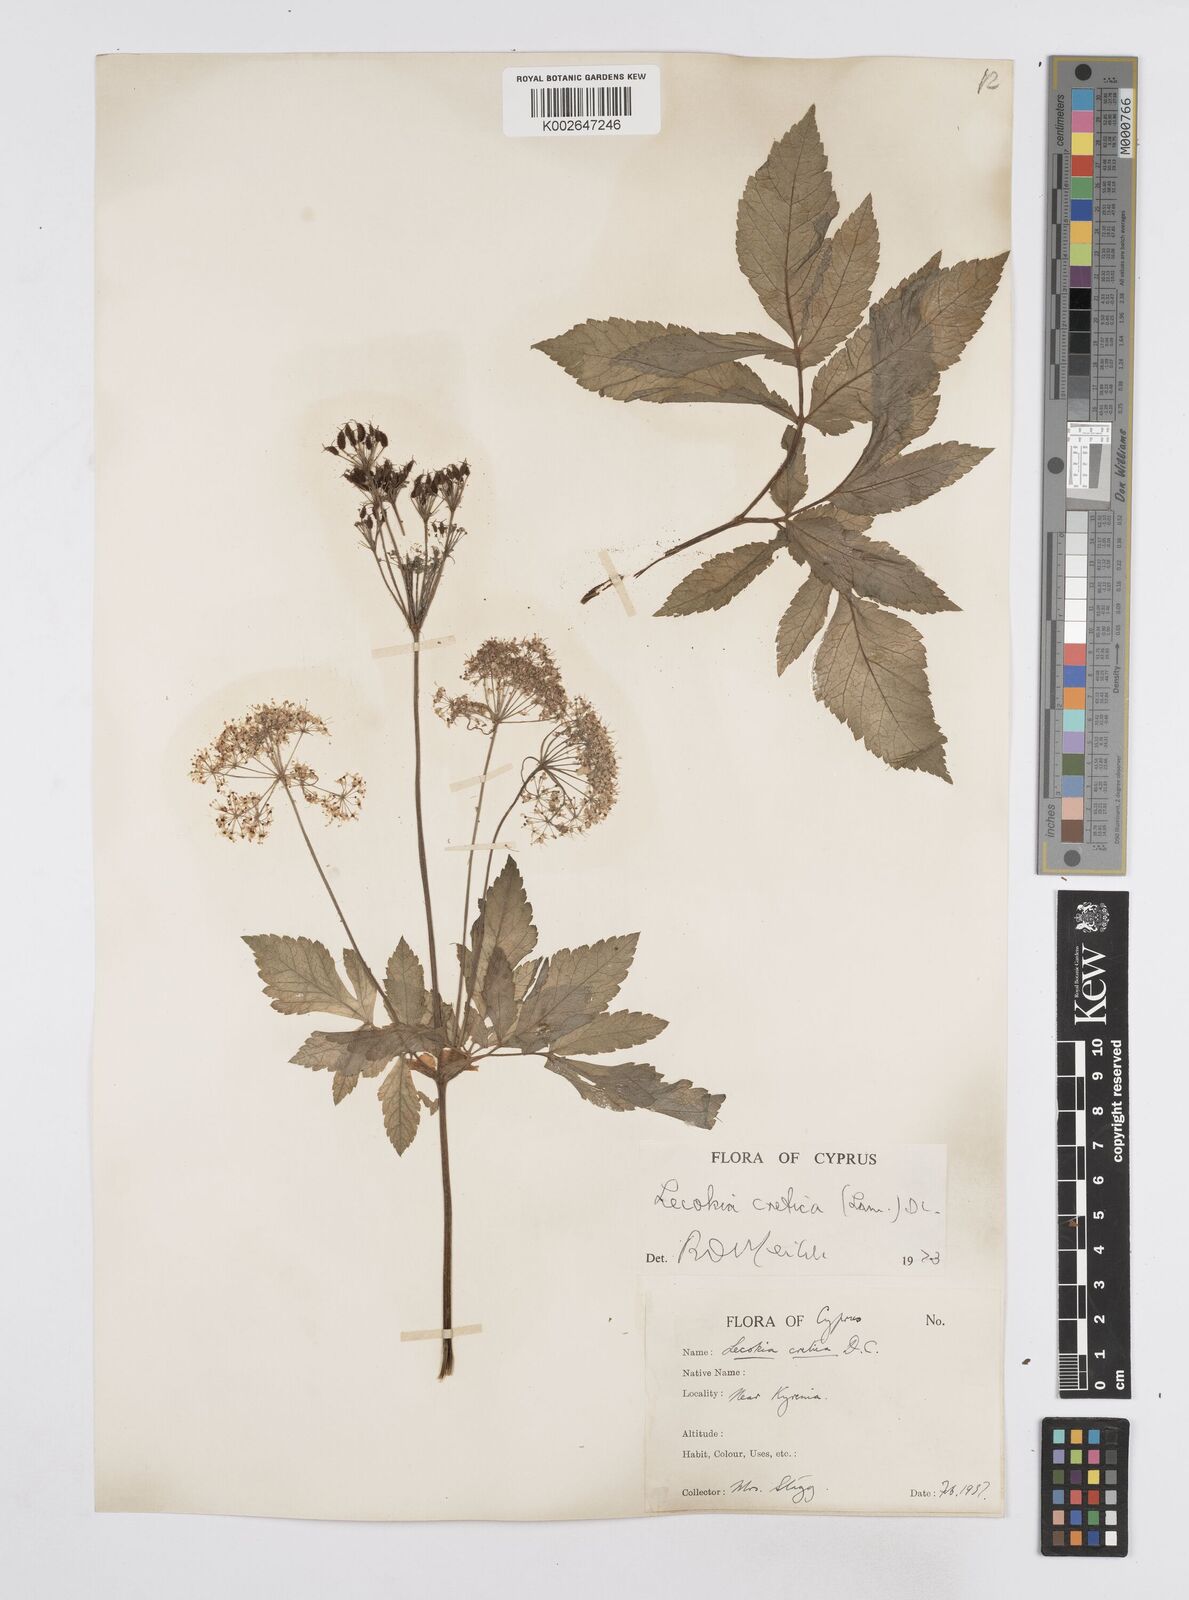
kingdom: Plantae
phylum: Tracheophyta
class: Magnoliopsida
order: Apiales
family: Apiaceae
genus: Lecokia
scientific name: Lecokia cretica
